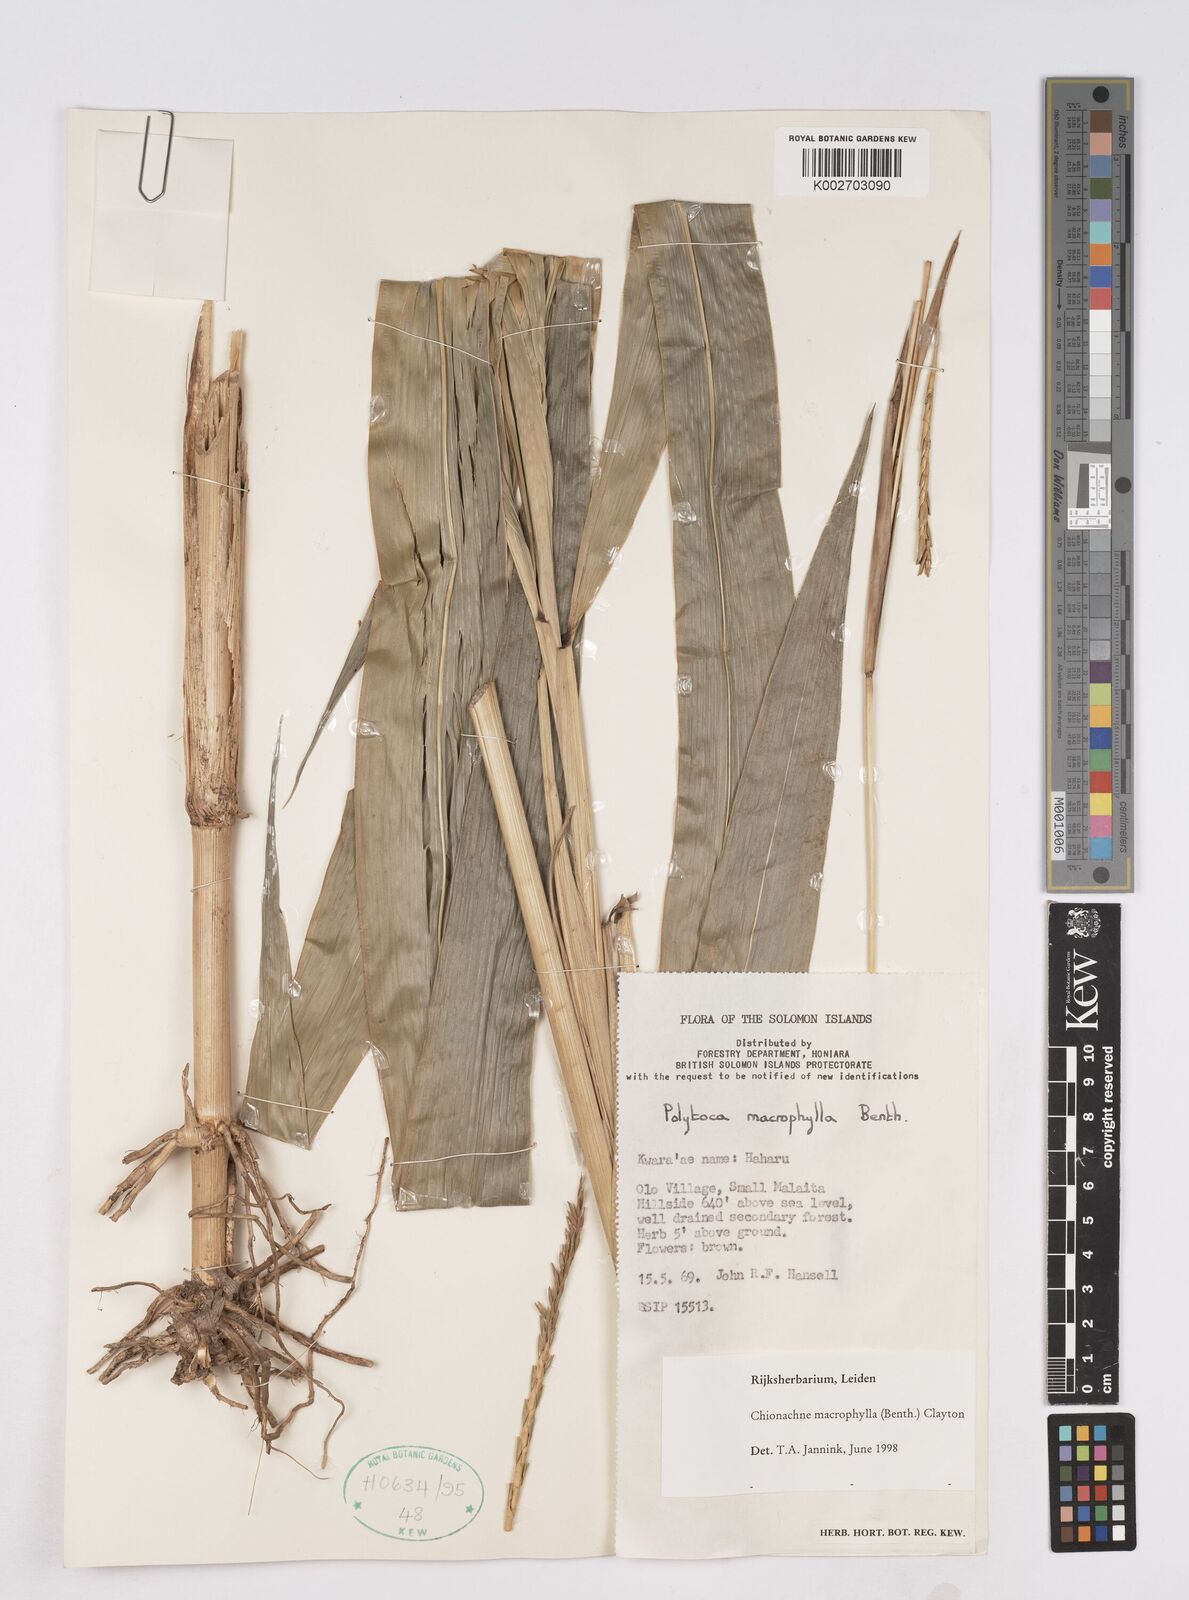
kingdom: Plantae
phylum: Tracheophyta
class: Liliopsida
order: Poales
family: Poaceae
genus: Polytoca
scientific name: Polytoca macrophylla
